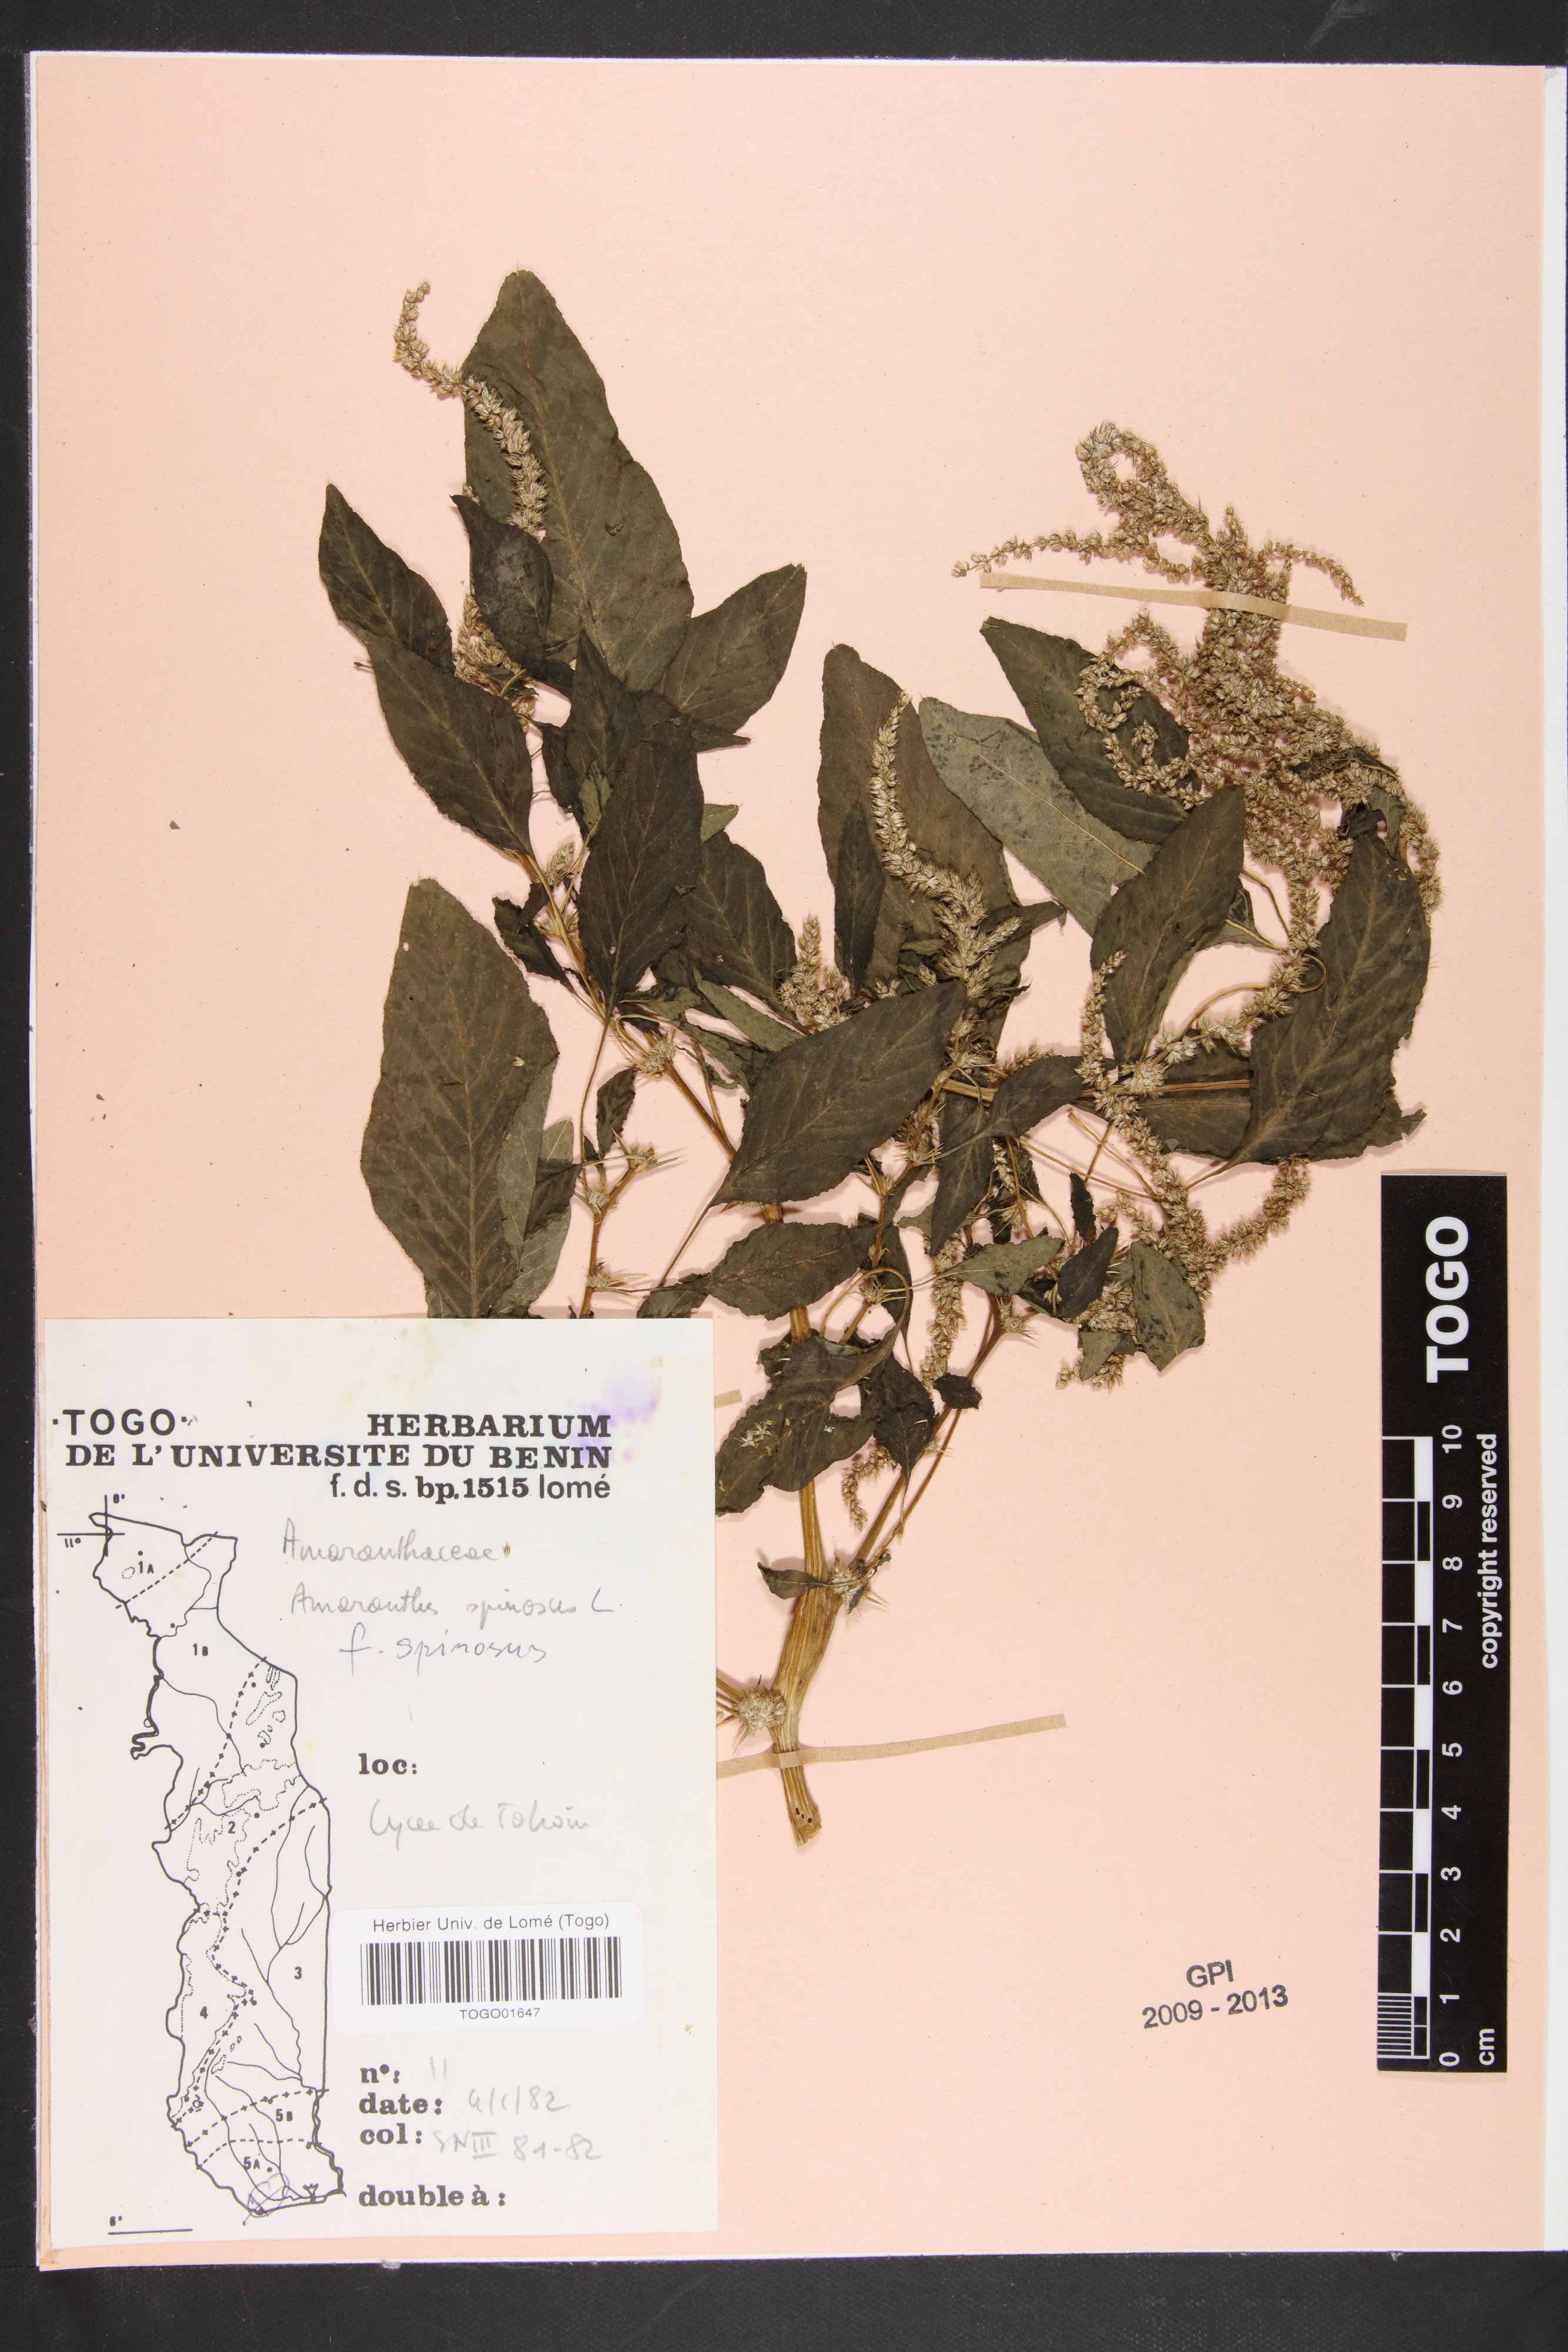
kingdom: Plantae
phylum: Tracheophyta
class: Magnoliopsida
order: Caryophyllales
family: Amaranthaceae
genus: Amaranthus
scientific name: Amaranthus spinosus
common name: Spiny amaranth
